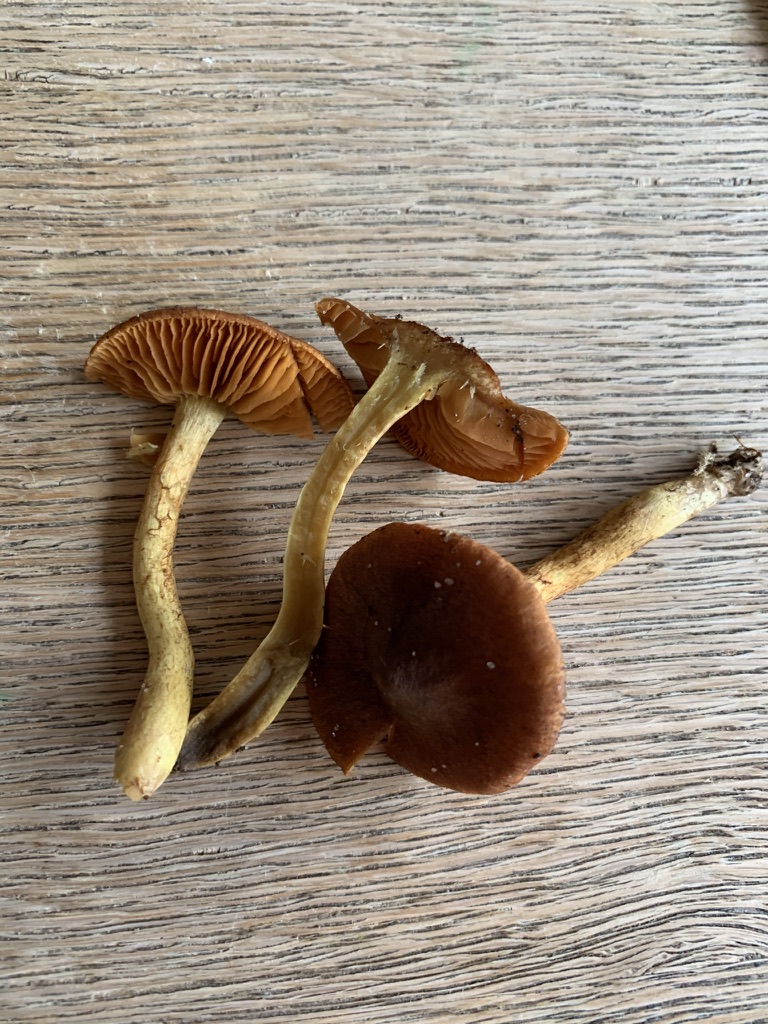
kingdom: Fungi
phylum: Basidiomycota
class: Agaricomycetes
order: Agaricales
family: Cortinariaceae
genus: Cortinarius
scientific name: Cortinarius pratensis
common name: hede-slørhat
